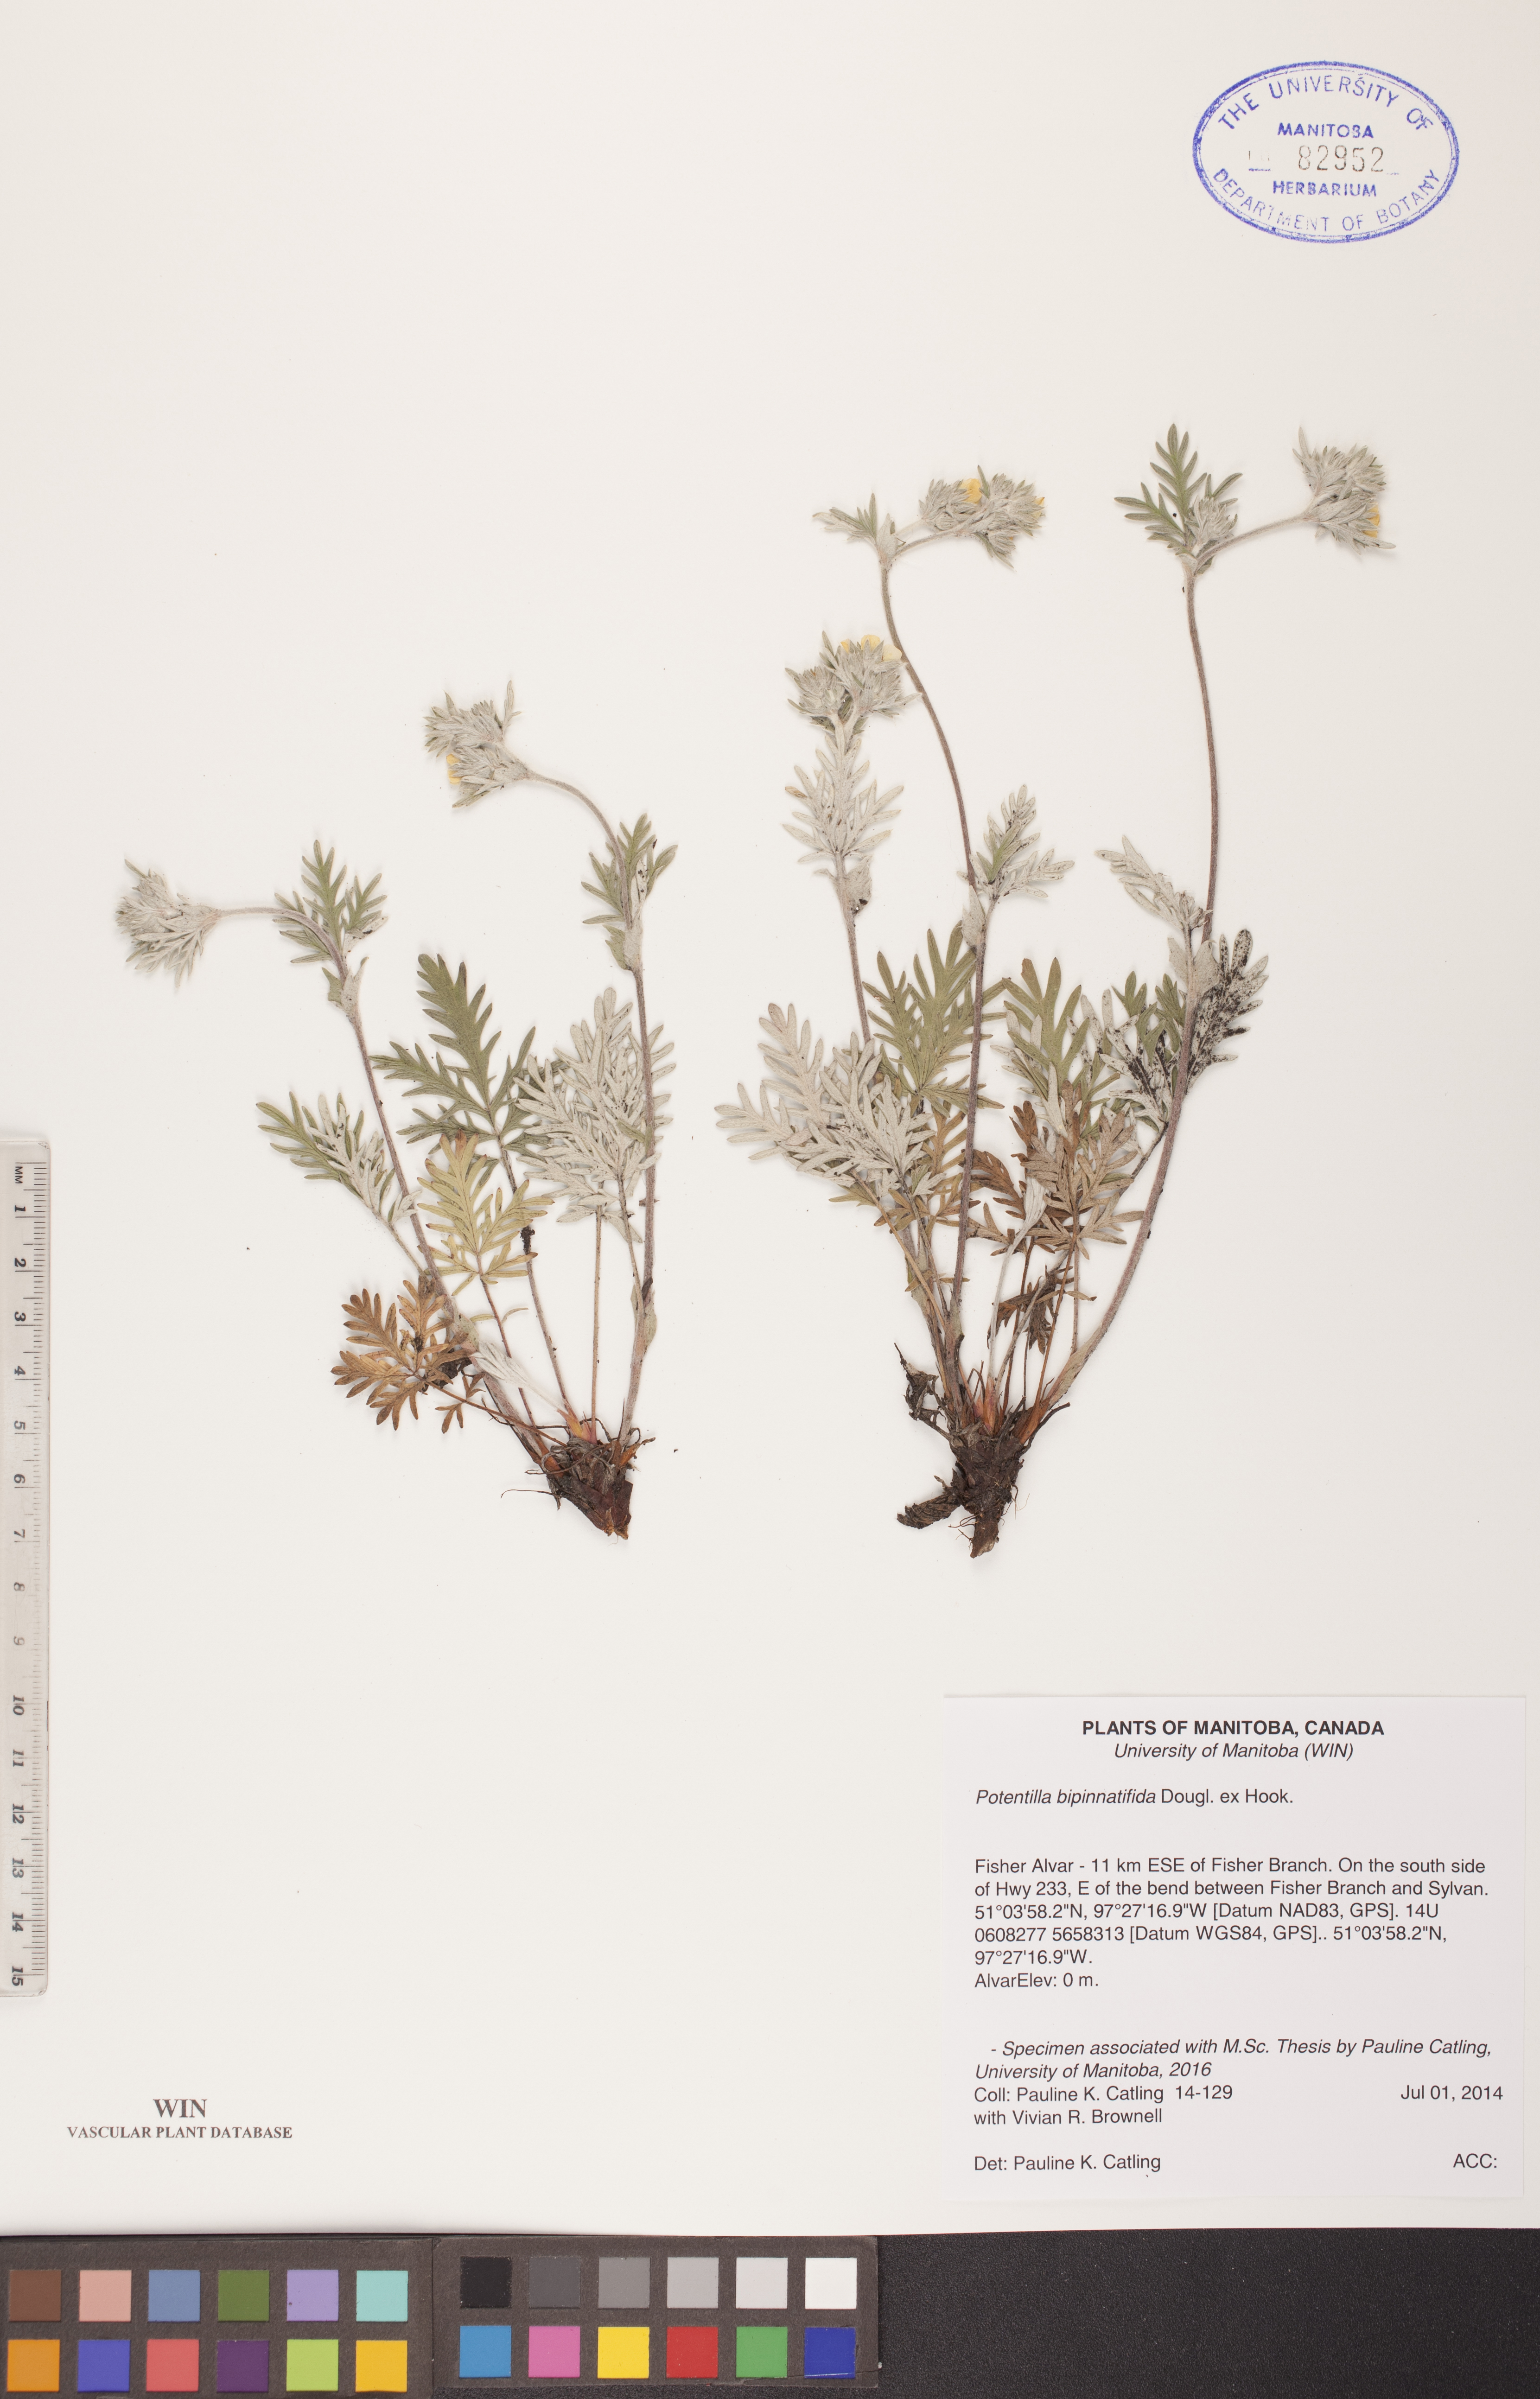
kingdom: Plantae
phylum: Tracheophyta
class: Magnoliopsida
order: Rosales
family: Rosaceae
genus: Potentilla
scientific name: Potentilla bipinnatifida
